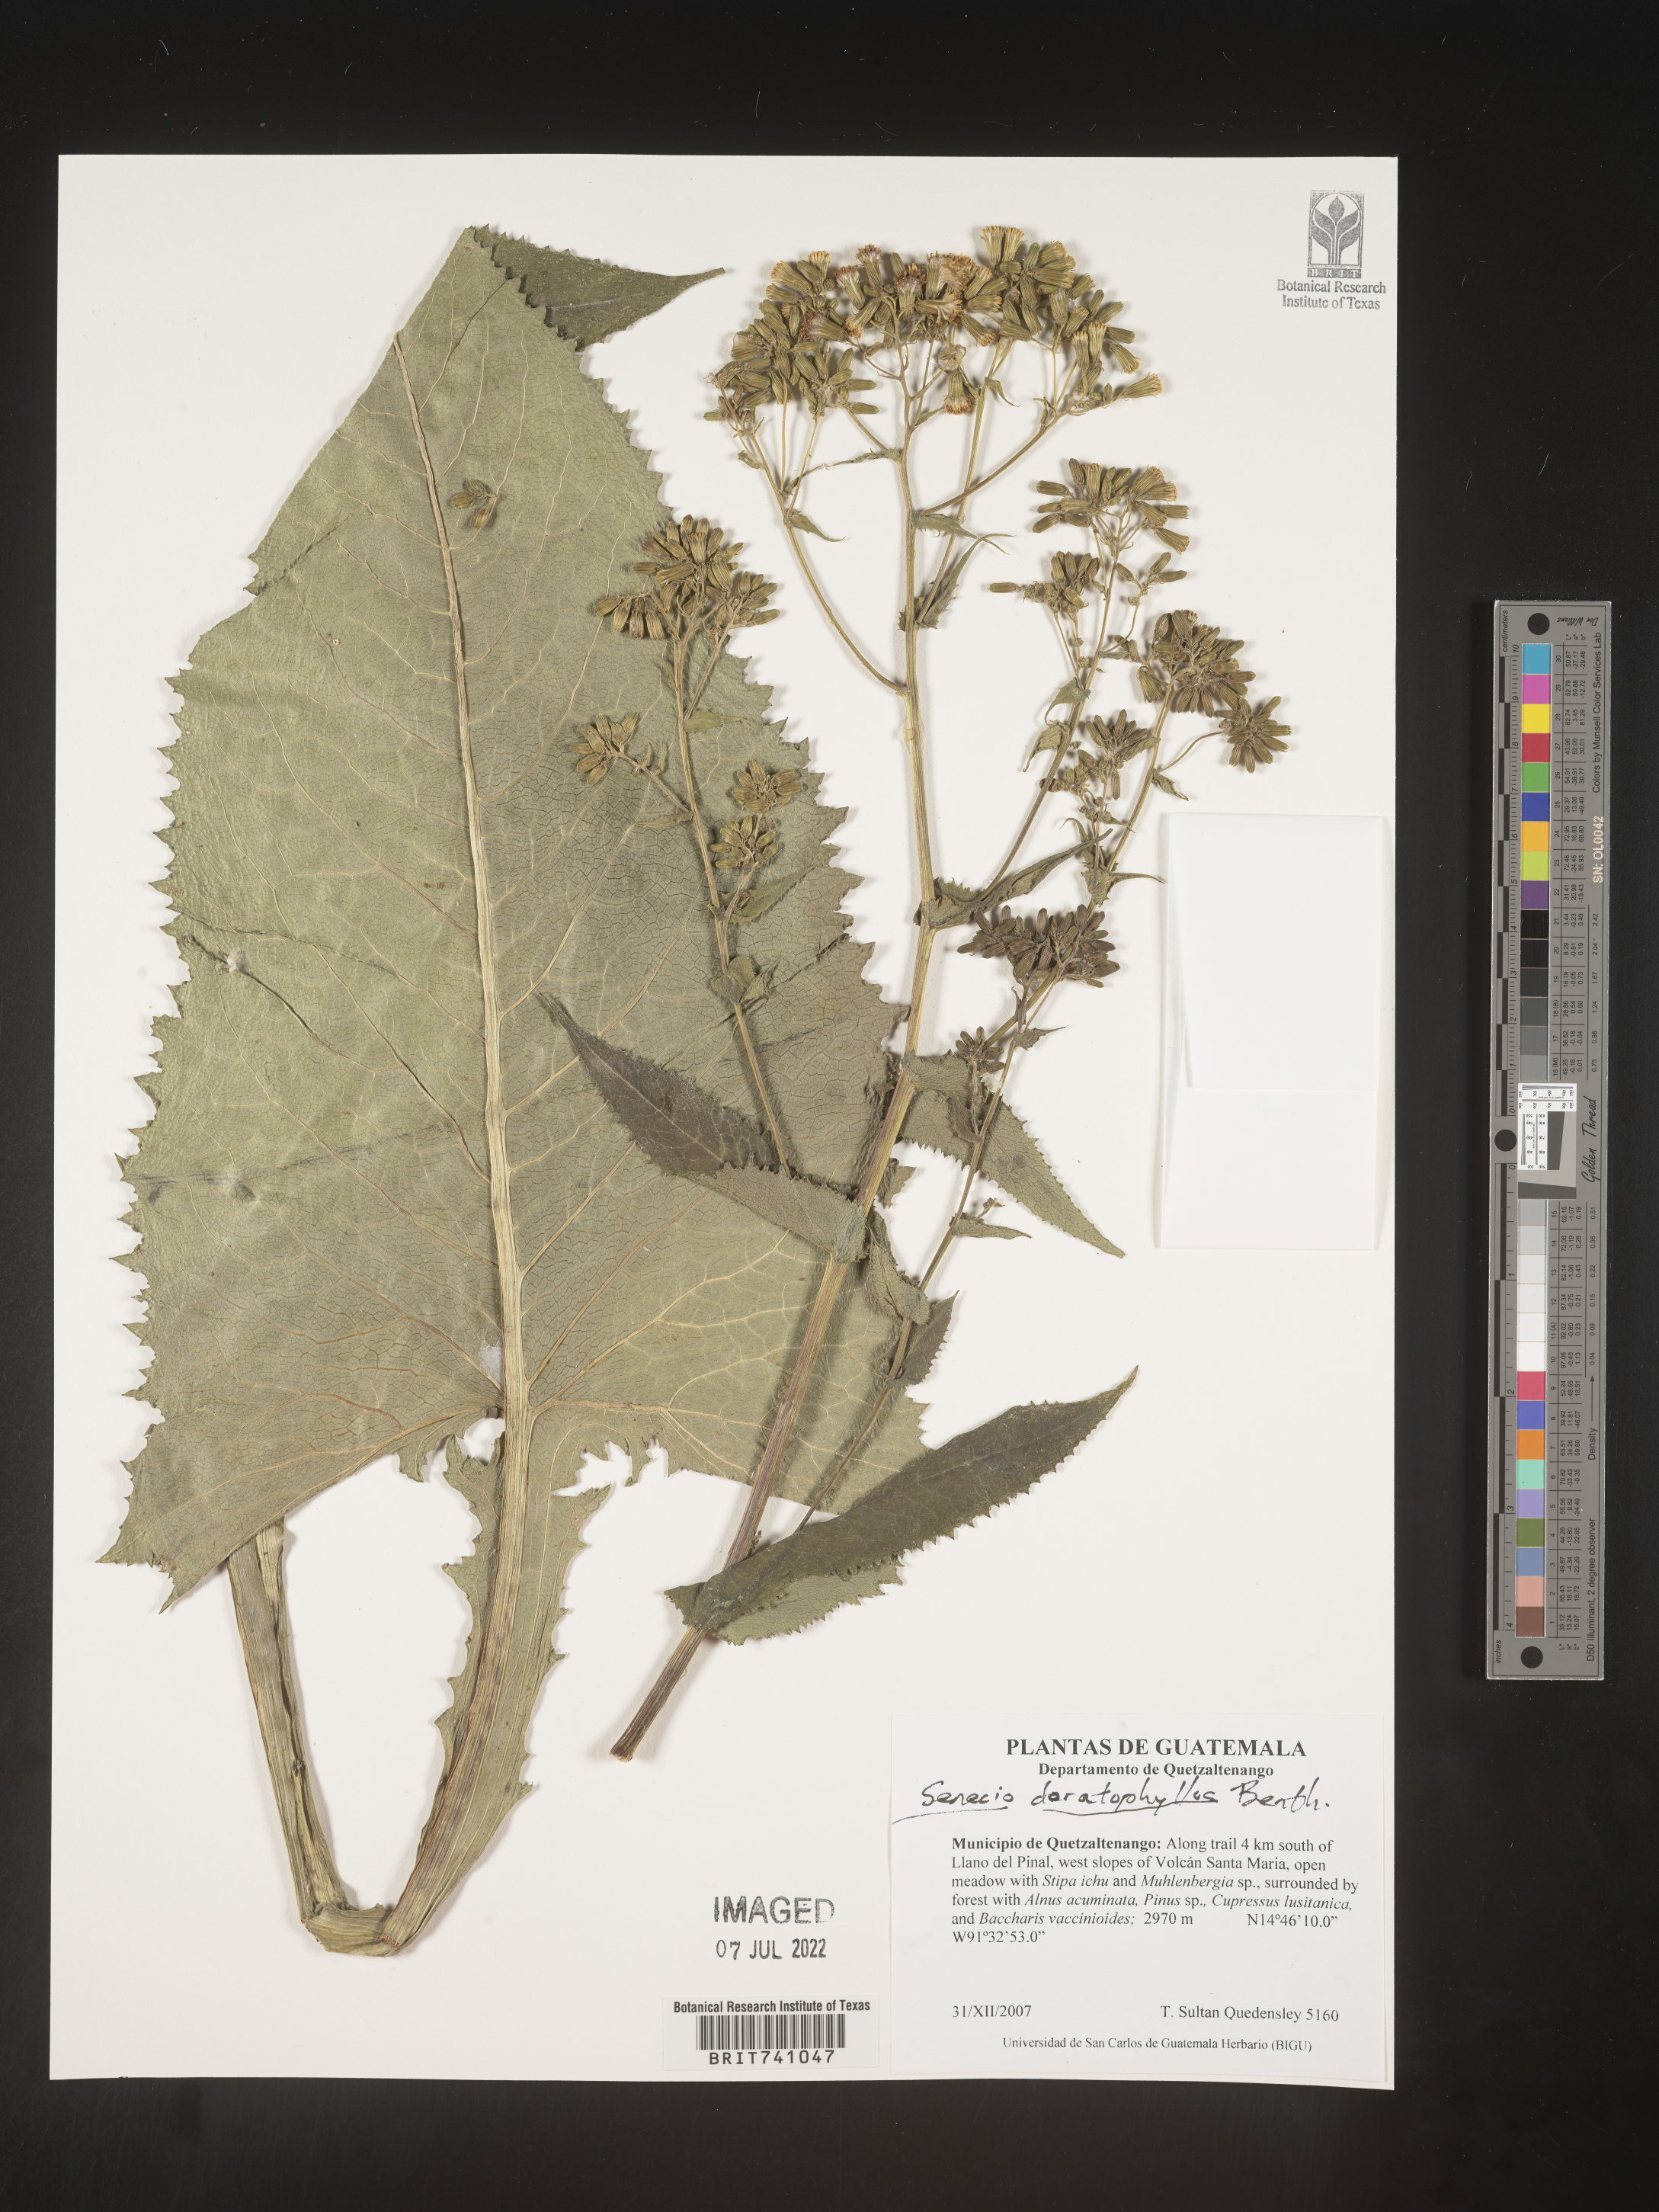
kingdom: Plantae
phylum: Tracheophyta
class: Magnoliopsida
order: Asterales
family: Asteraceae
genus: Senecio
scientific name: Senecio
